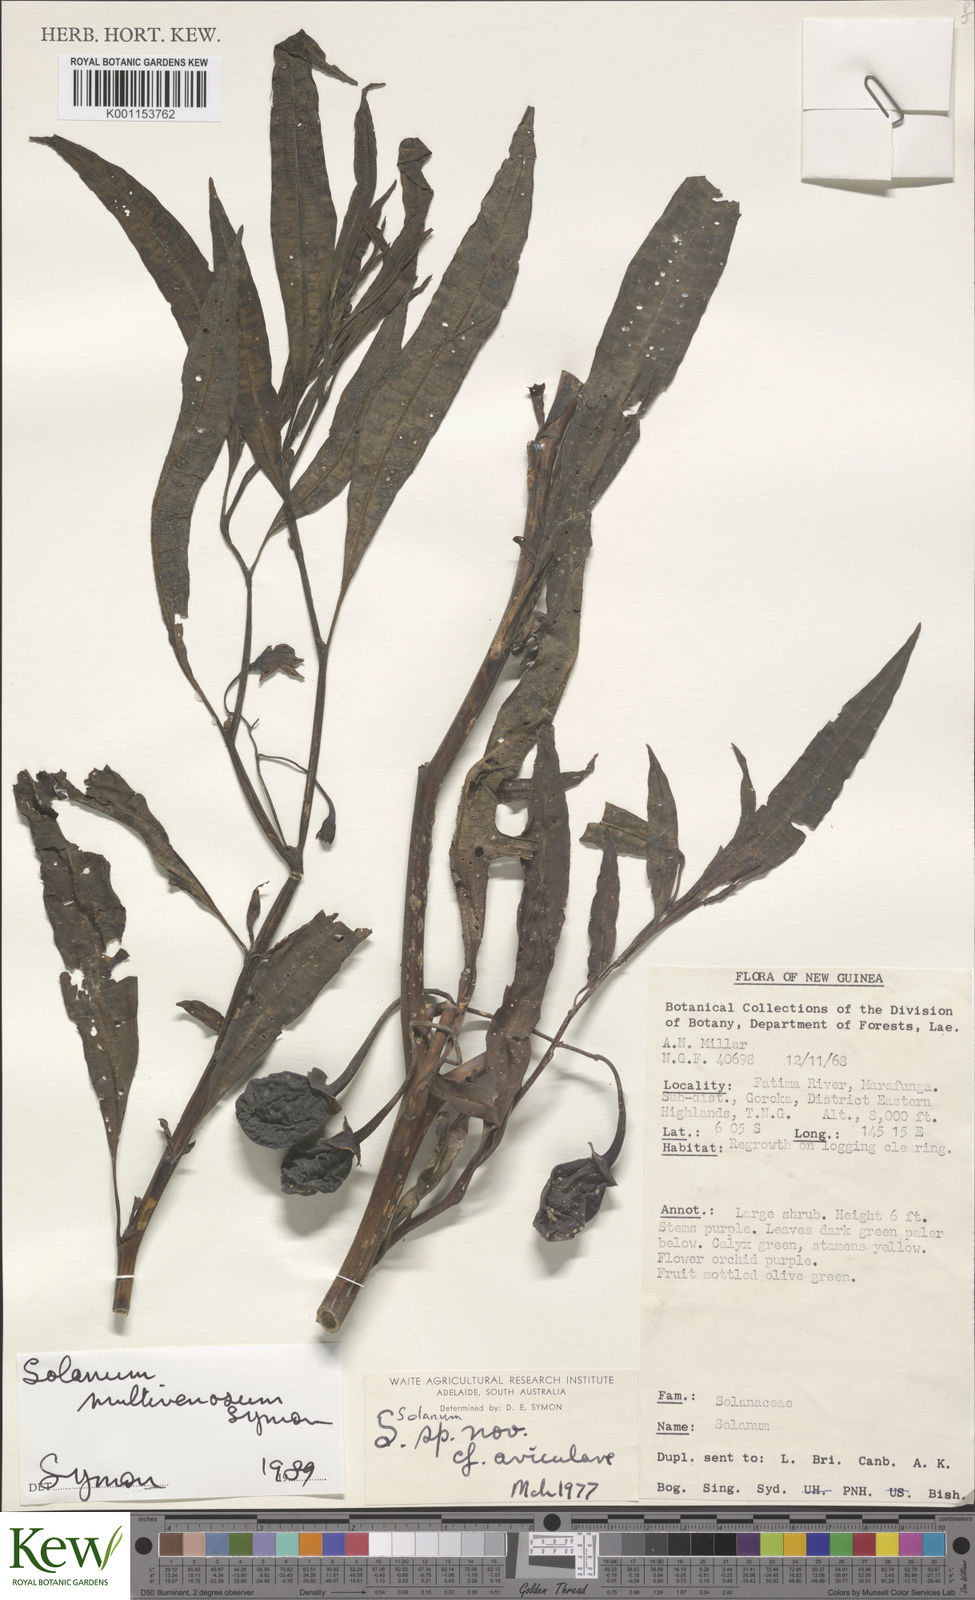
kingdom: Plantae
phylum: Tracheophyta
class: Magnoliopsida
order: Solanales
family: Solanaceae
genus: Solanum
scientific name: Solanum multivenosum
